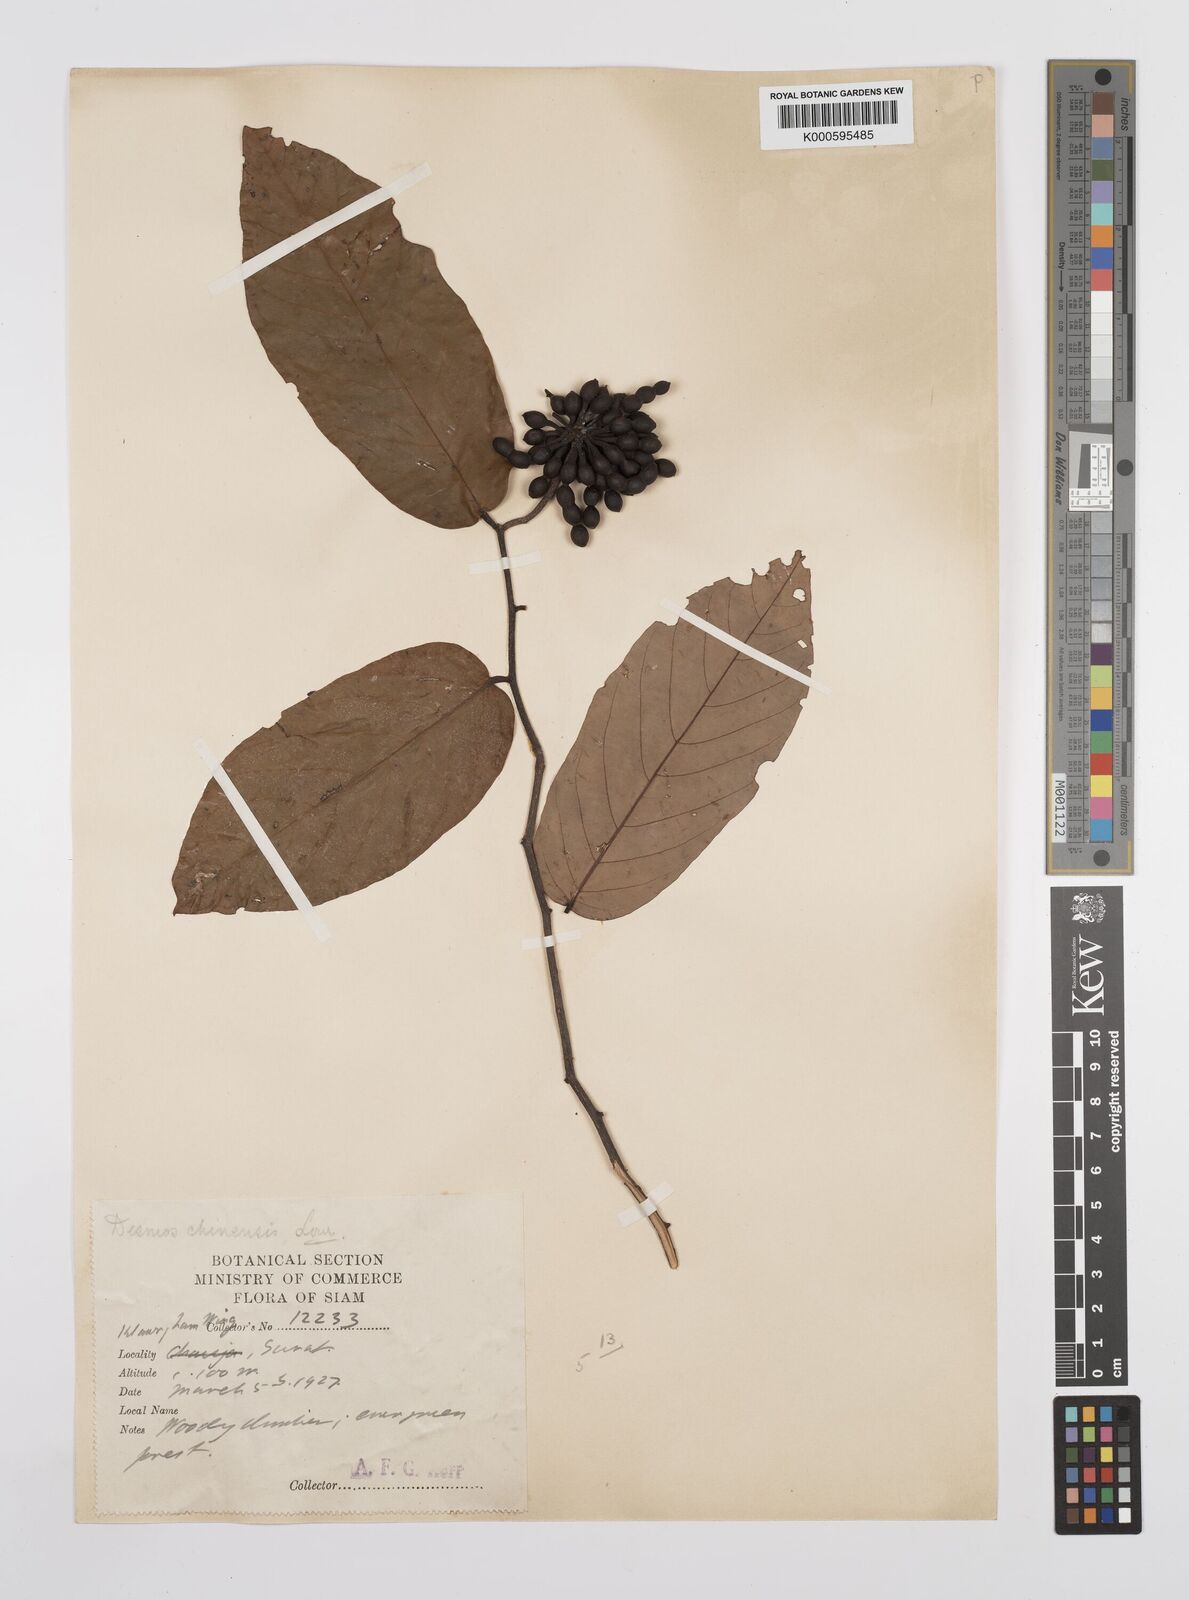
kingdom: Plantae
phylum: Tracheophyta
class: Magnoliopsida
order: Magnoliales
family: Annonaceae
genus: Desmos
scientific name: Desmos chinensis
